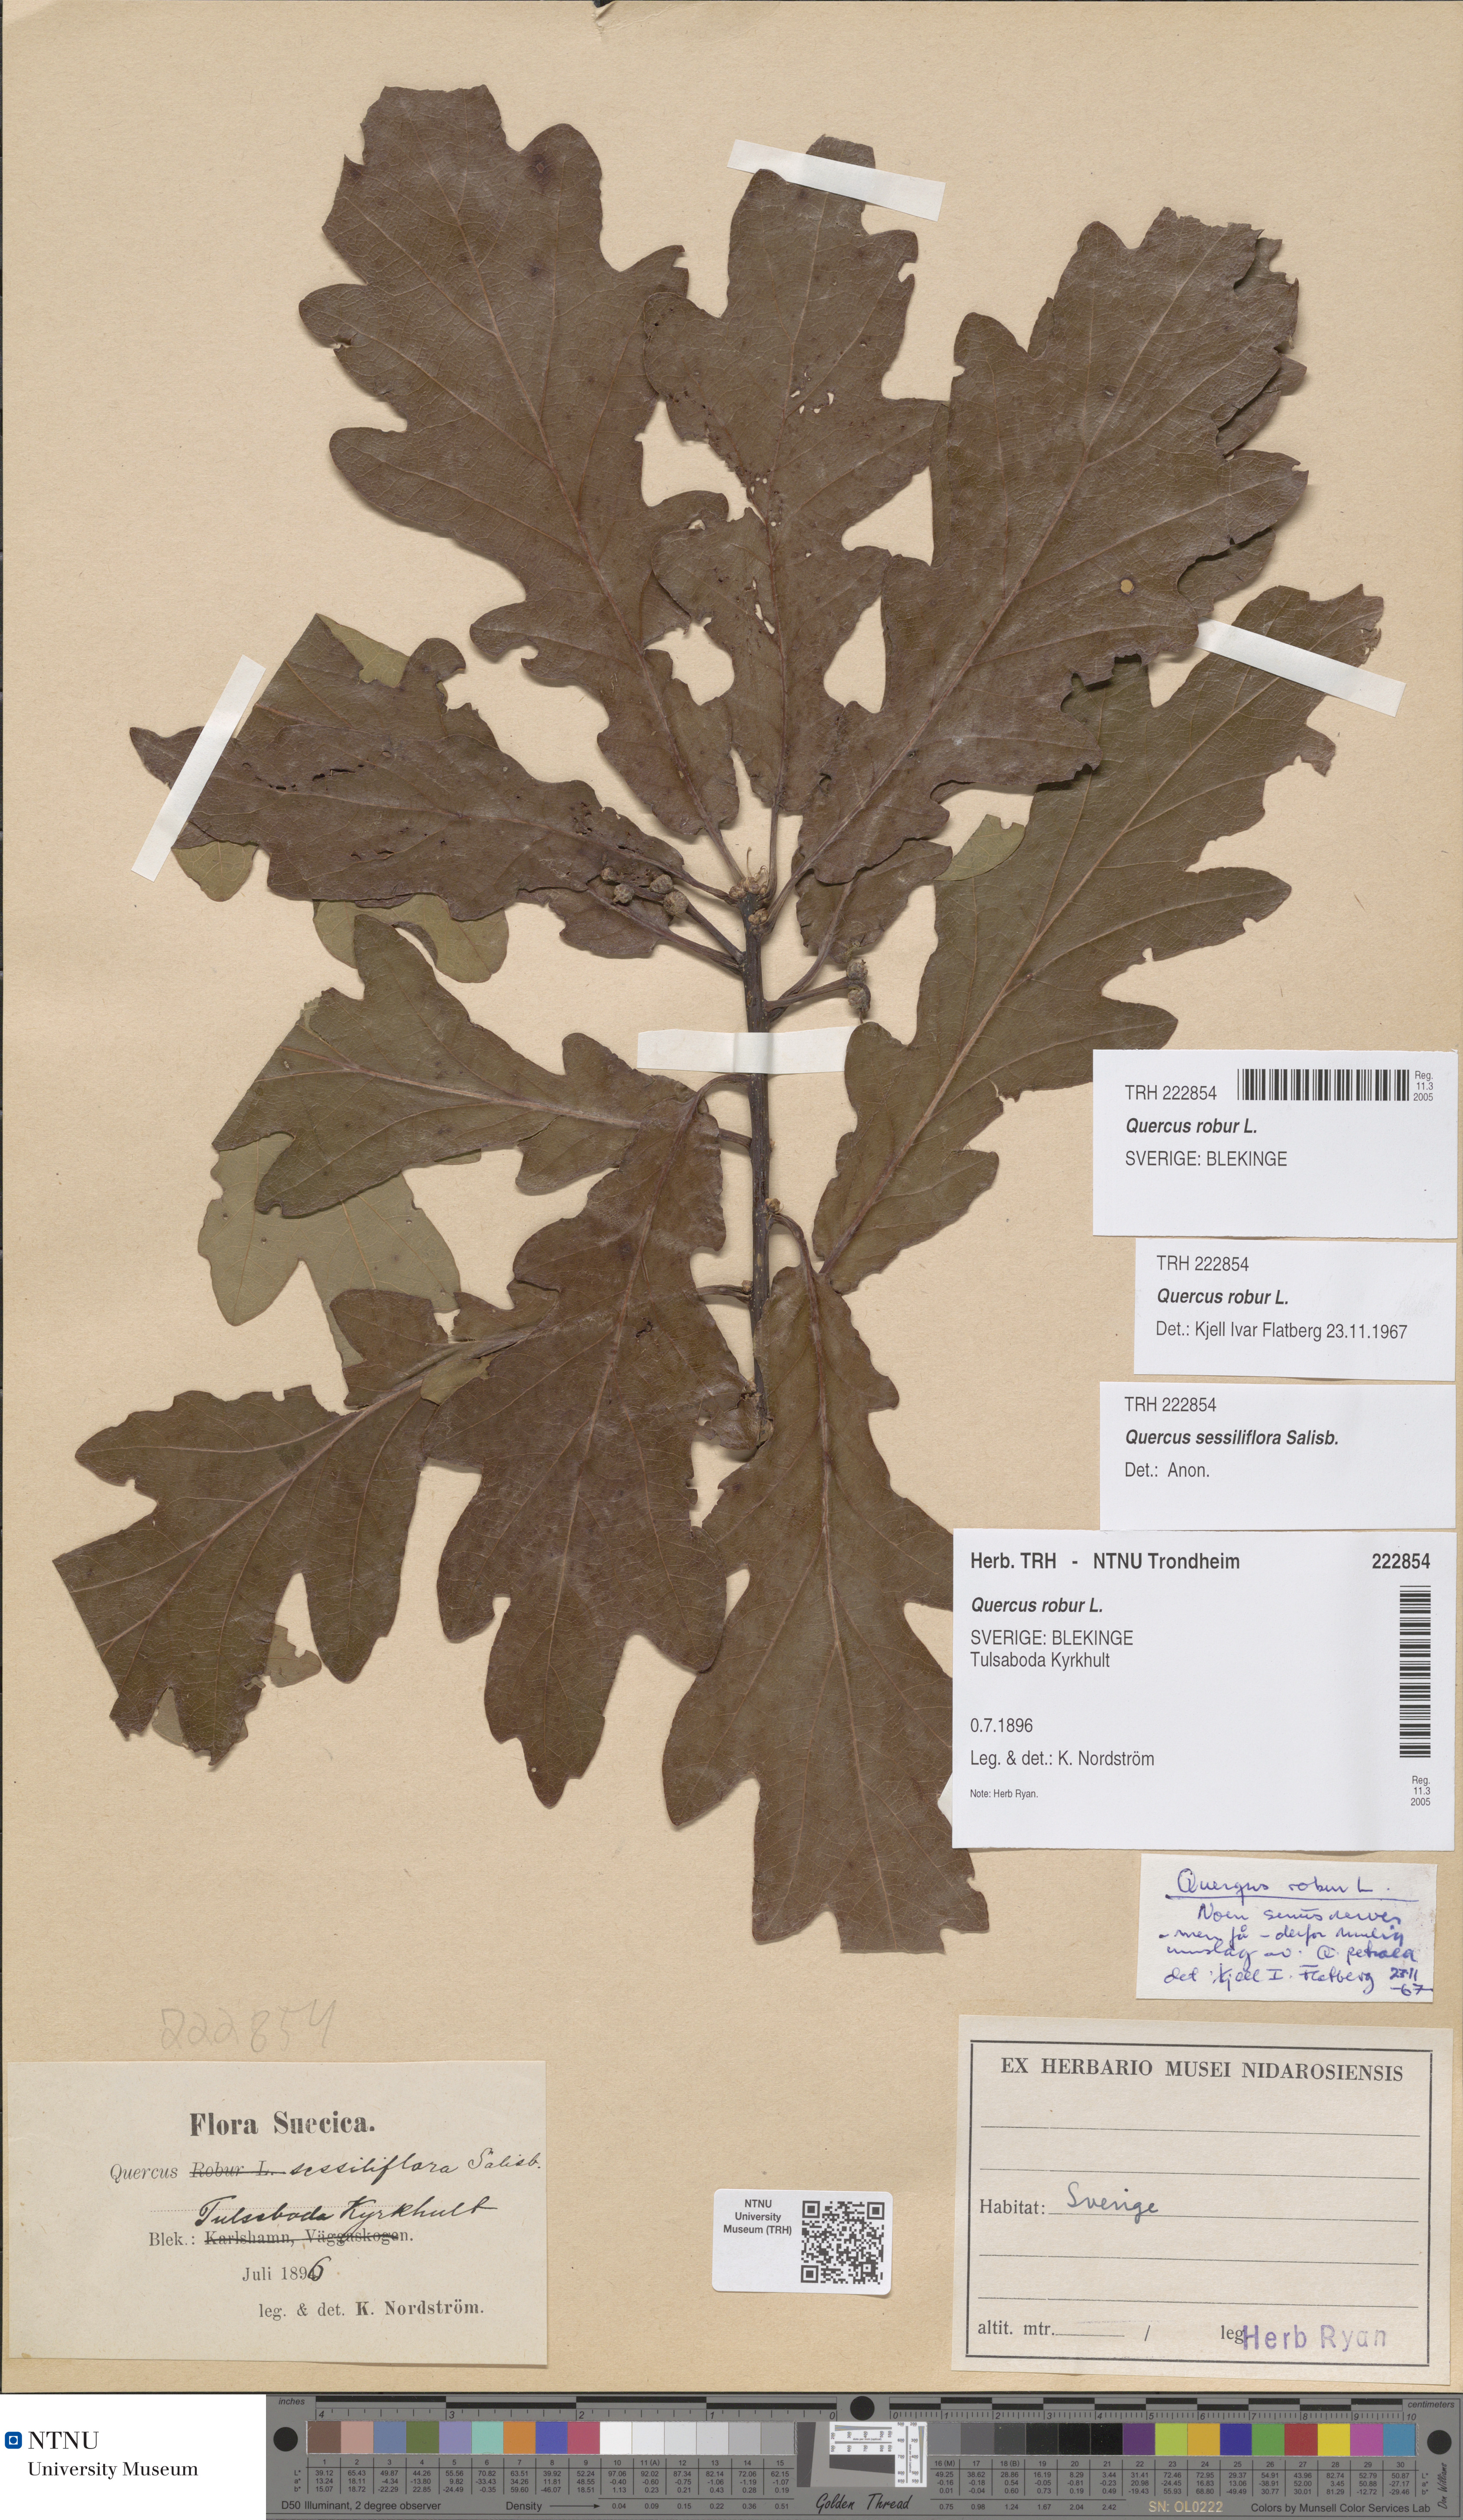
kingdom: Plantae
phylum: Tracheophyta
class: Magnoliopsida
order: Fagales
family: Fagaceae
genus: Quercus
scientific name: Quercus robur
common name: Pedunculate oak
